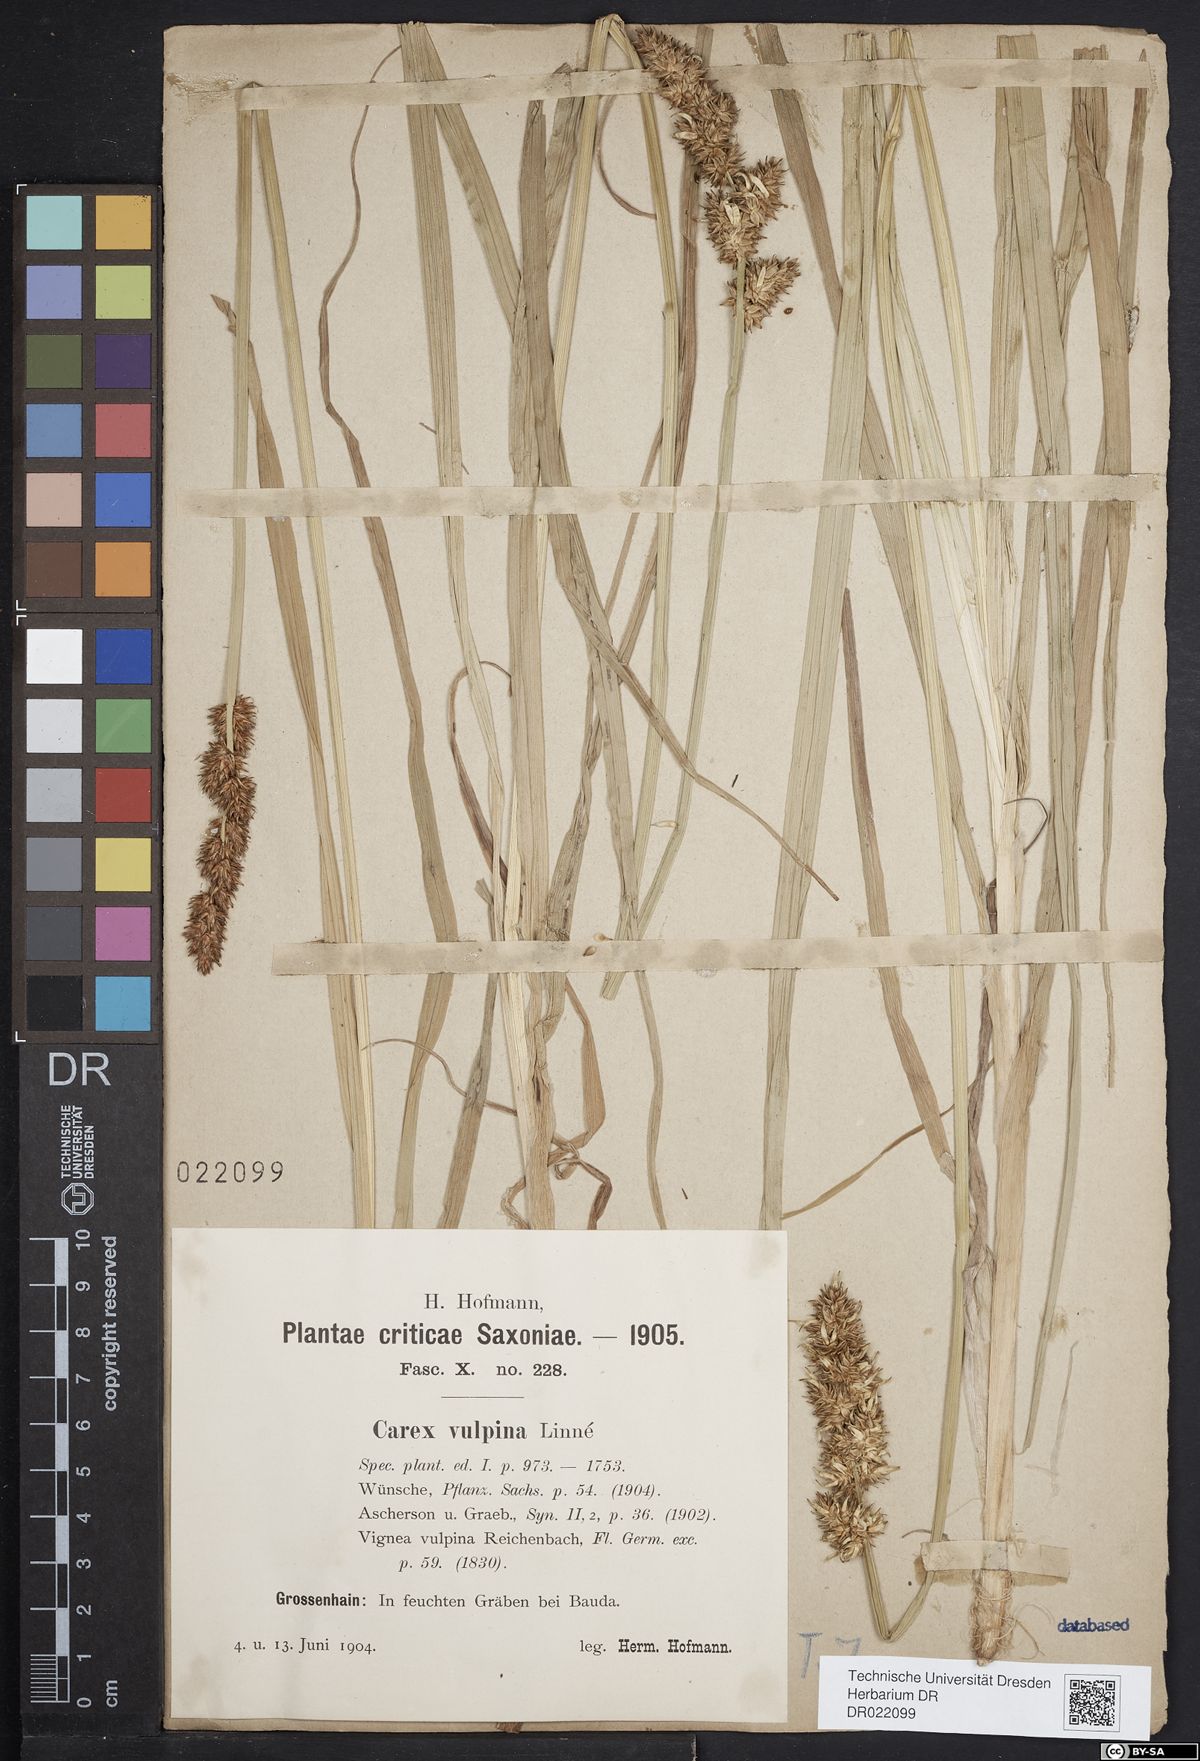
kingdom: Plantae
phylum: Tracheophyta
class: Liliopsida
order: Poales
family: Cyperaceae
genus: Carex
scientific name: Carex vulpina
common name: True fox-sedge
